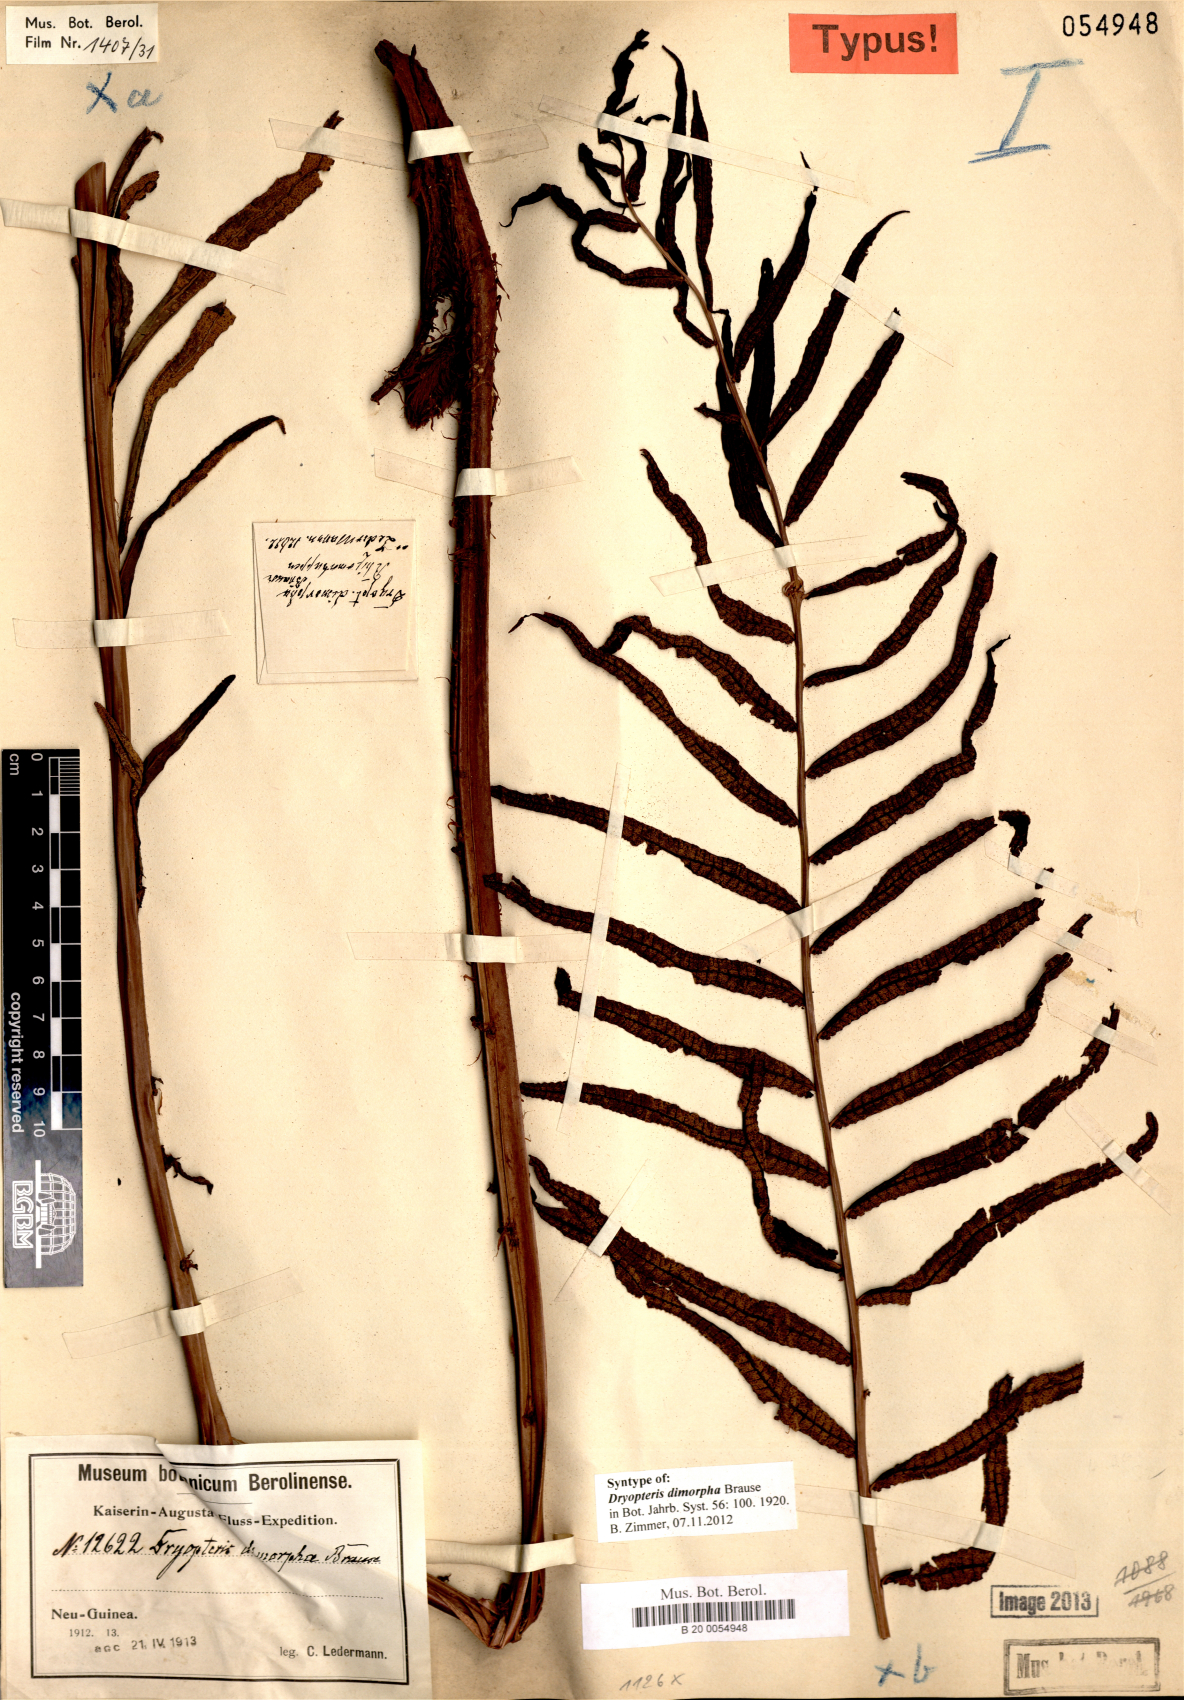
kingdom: Plantae
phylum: Tracheophyta
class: Polypodiopsida
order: Polypodiales
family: Thelypteridaceae
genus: Sphaerostephanos
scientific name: Sphaerostephanos dimorphus
